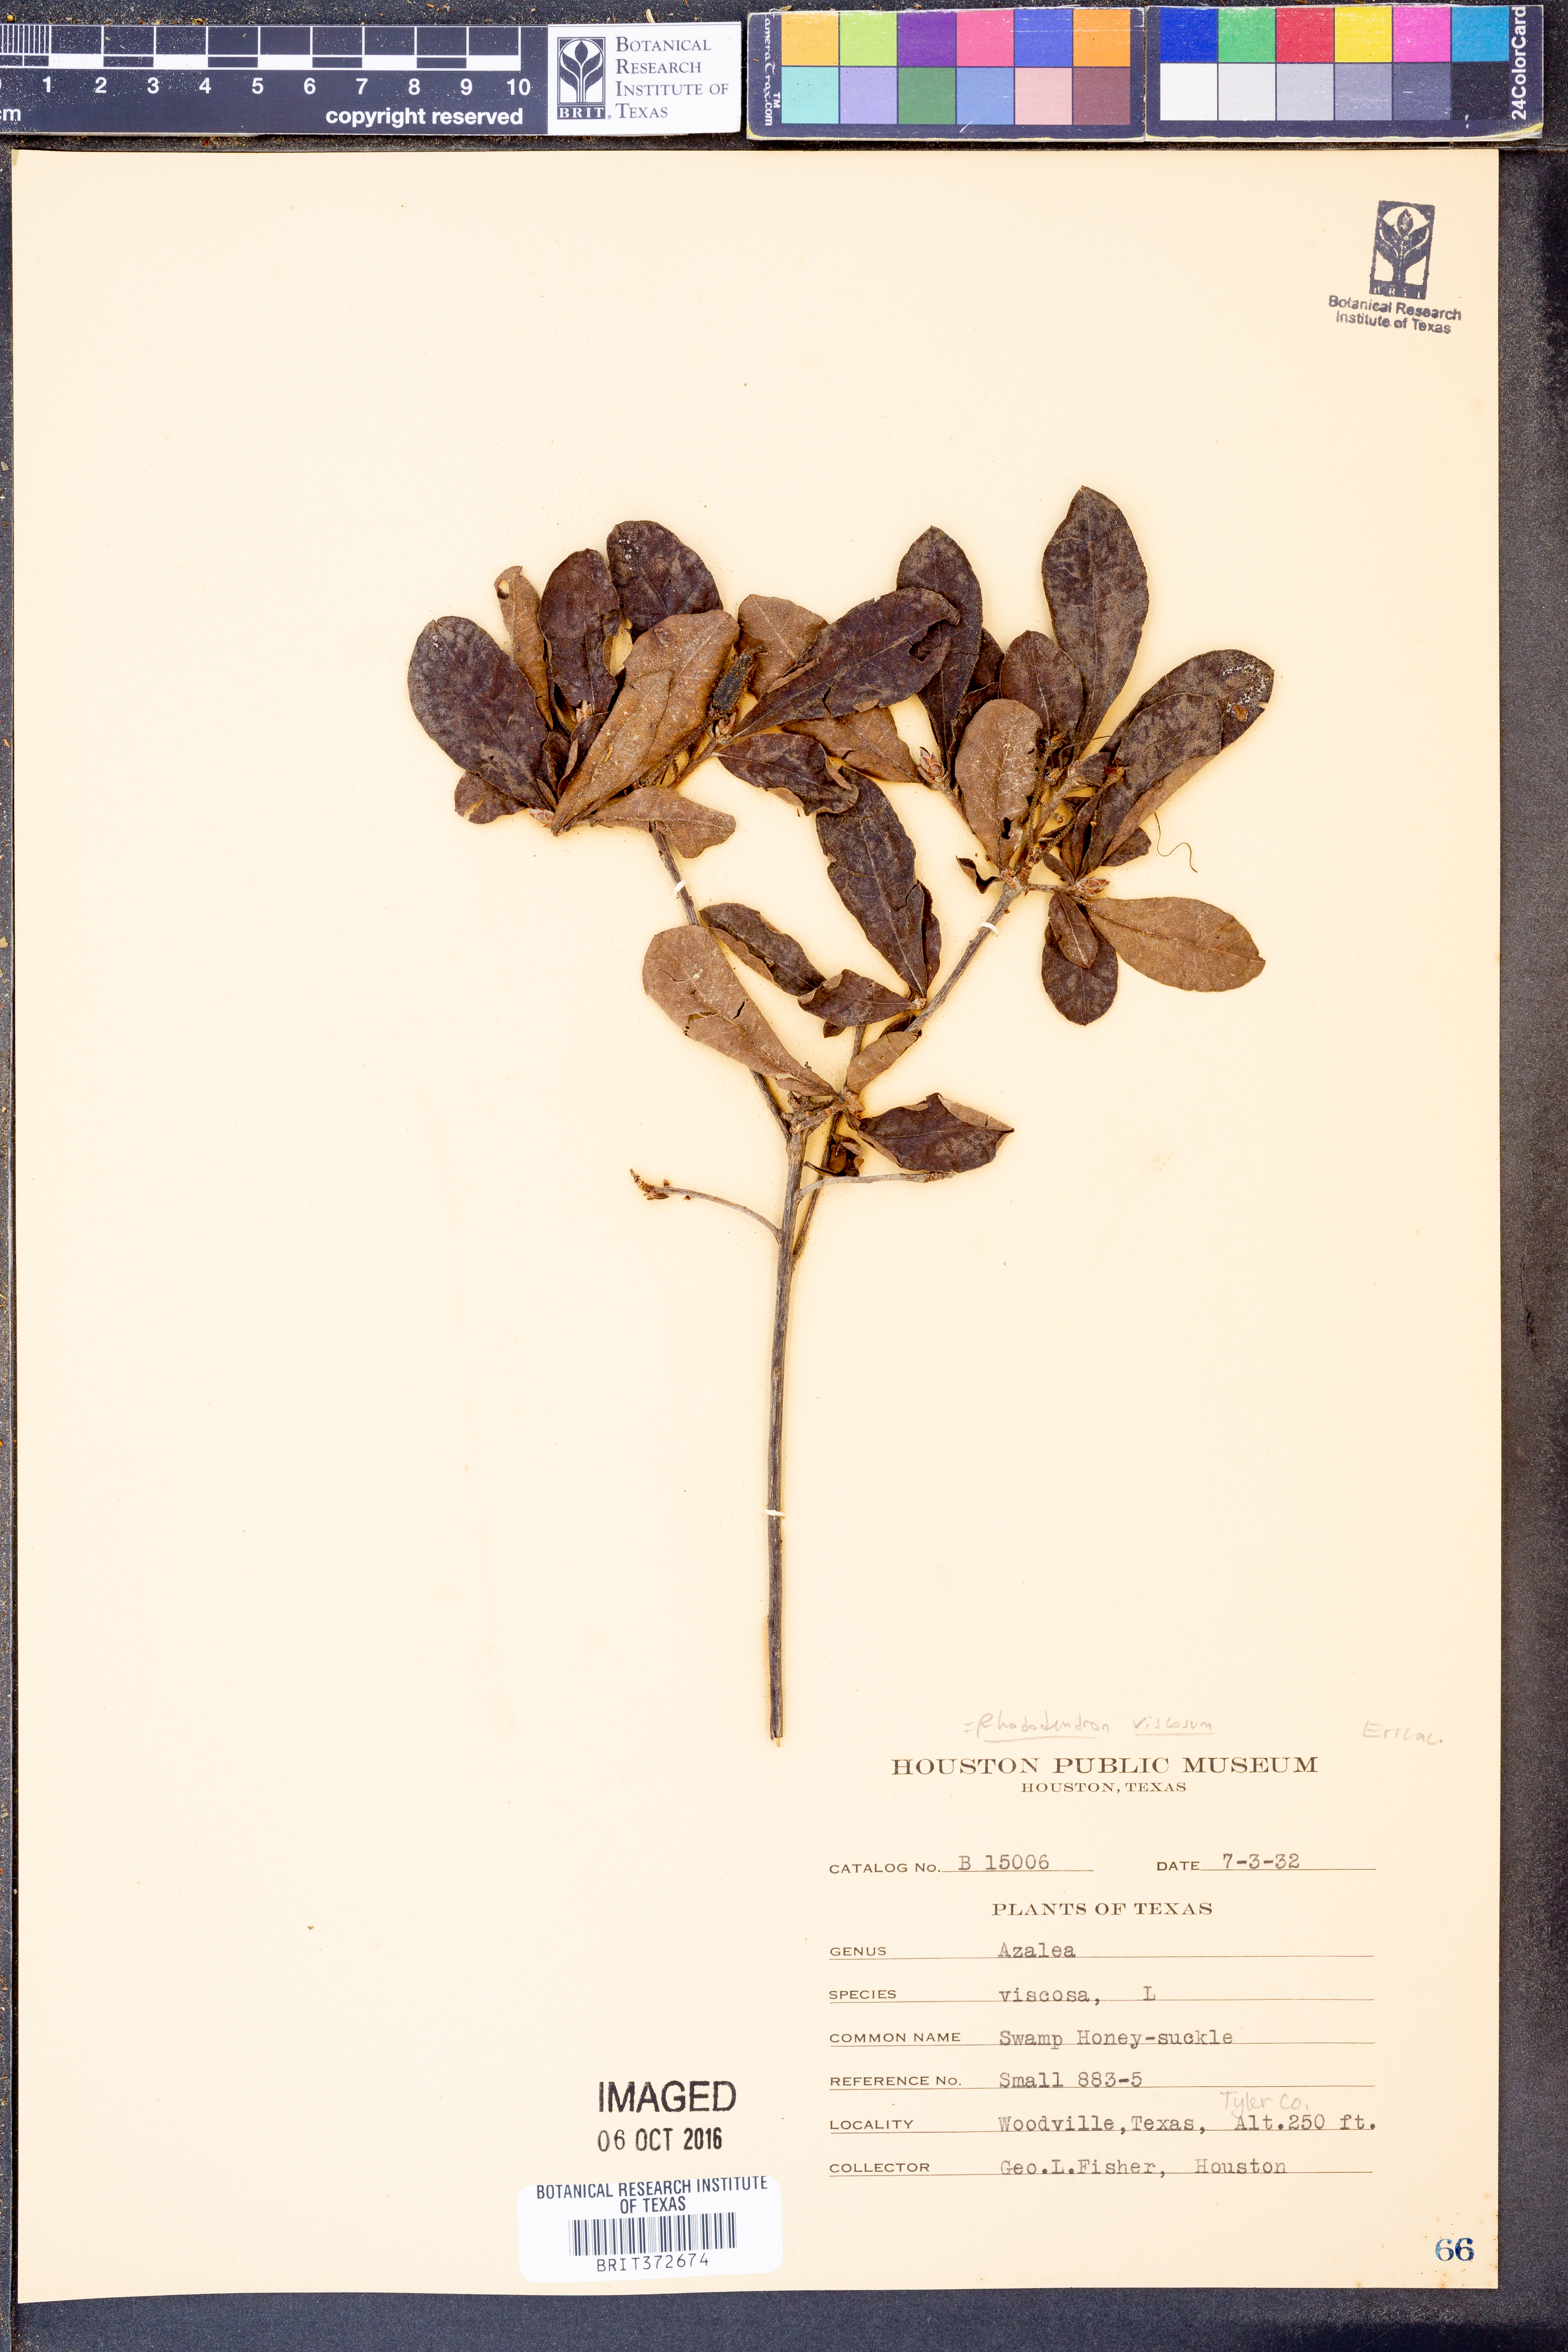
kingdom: Plantae
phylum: Tracheophyta
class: Magnoliopsida
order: Ericales
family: Ericaceae
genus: Rhododendron
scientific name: Rhododendron viscosum
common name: Clammy azalea
